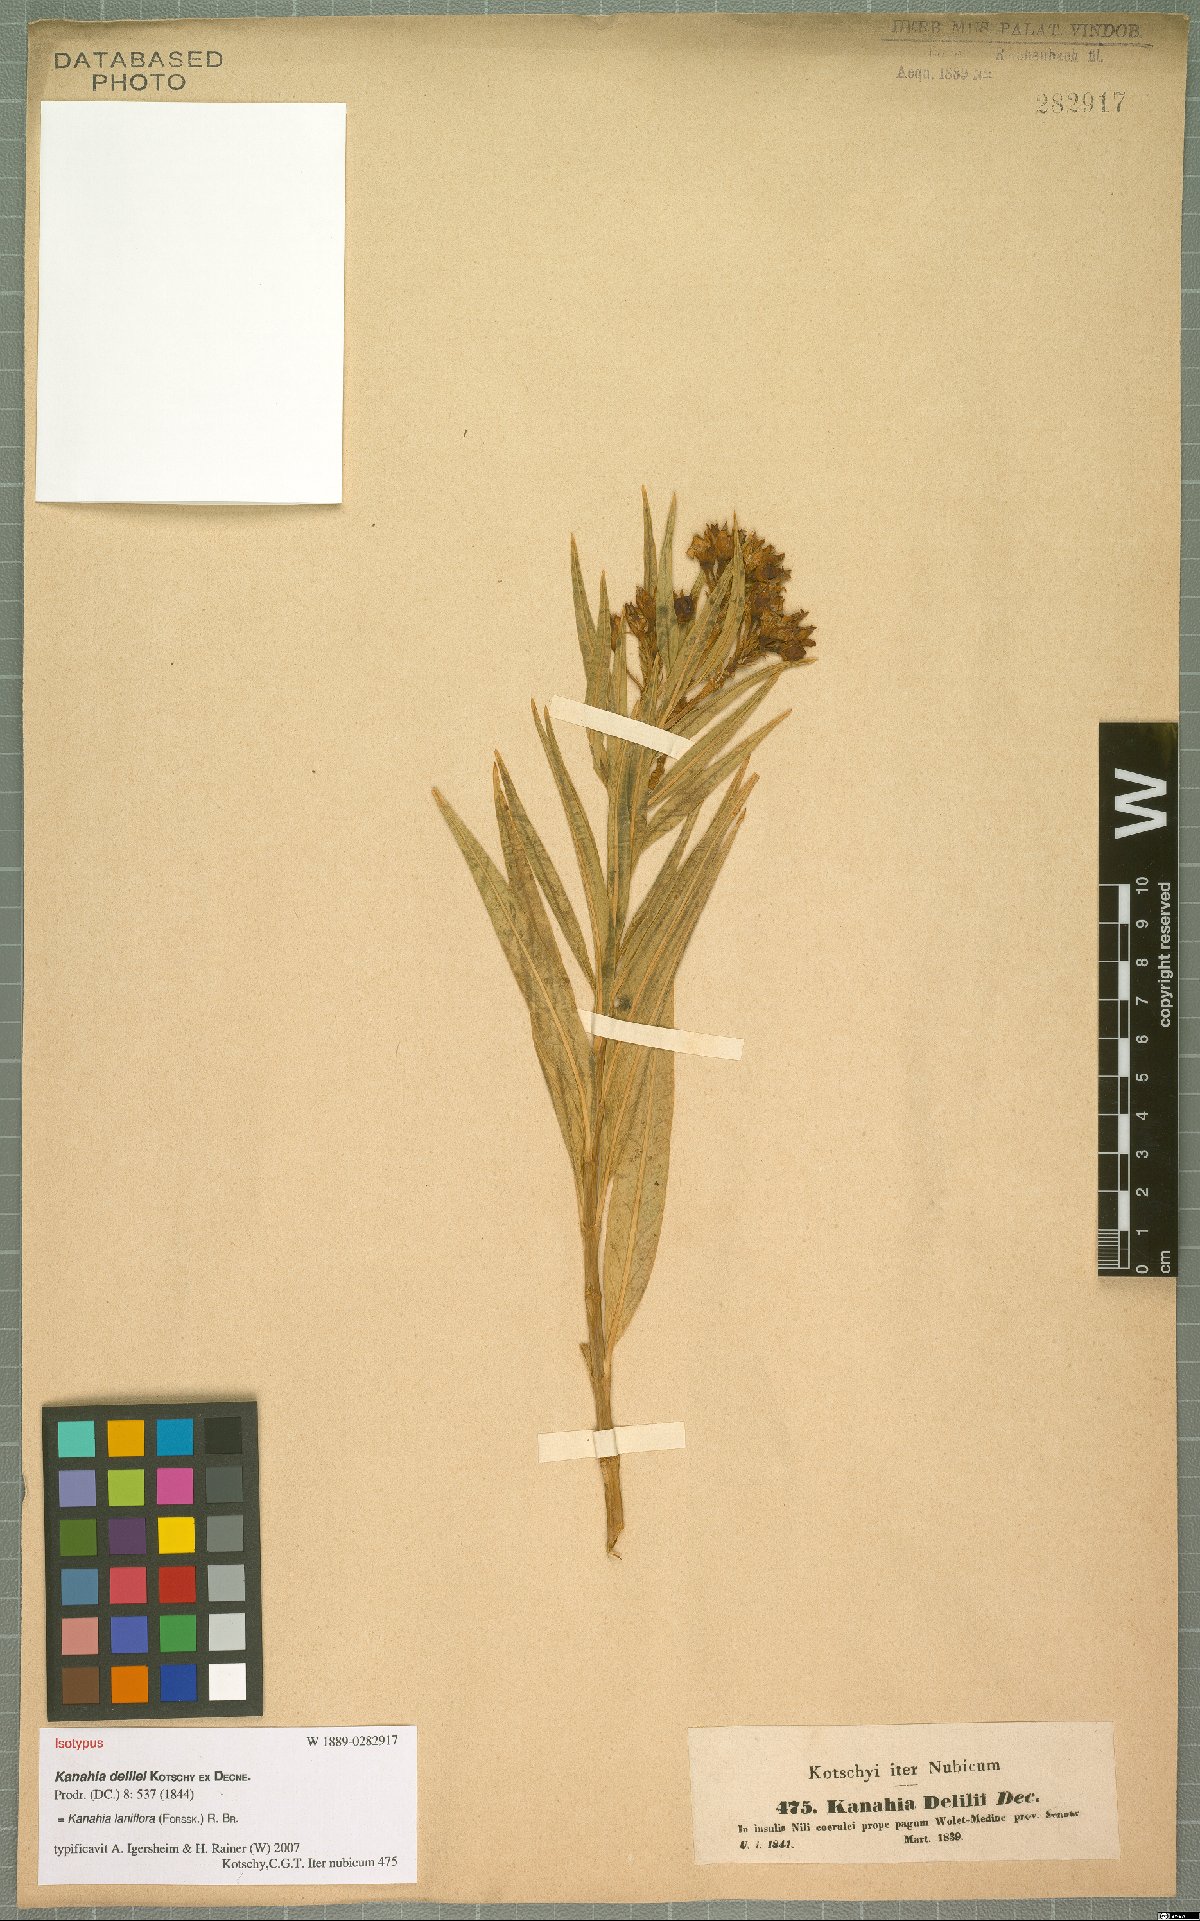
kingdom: Plantae
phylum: Tracheophyta
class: Magnoliopsida
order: Gentianales
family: Apocynaceae
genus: Kanahia
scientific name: Kanahia laniflora
